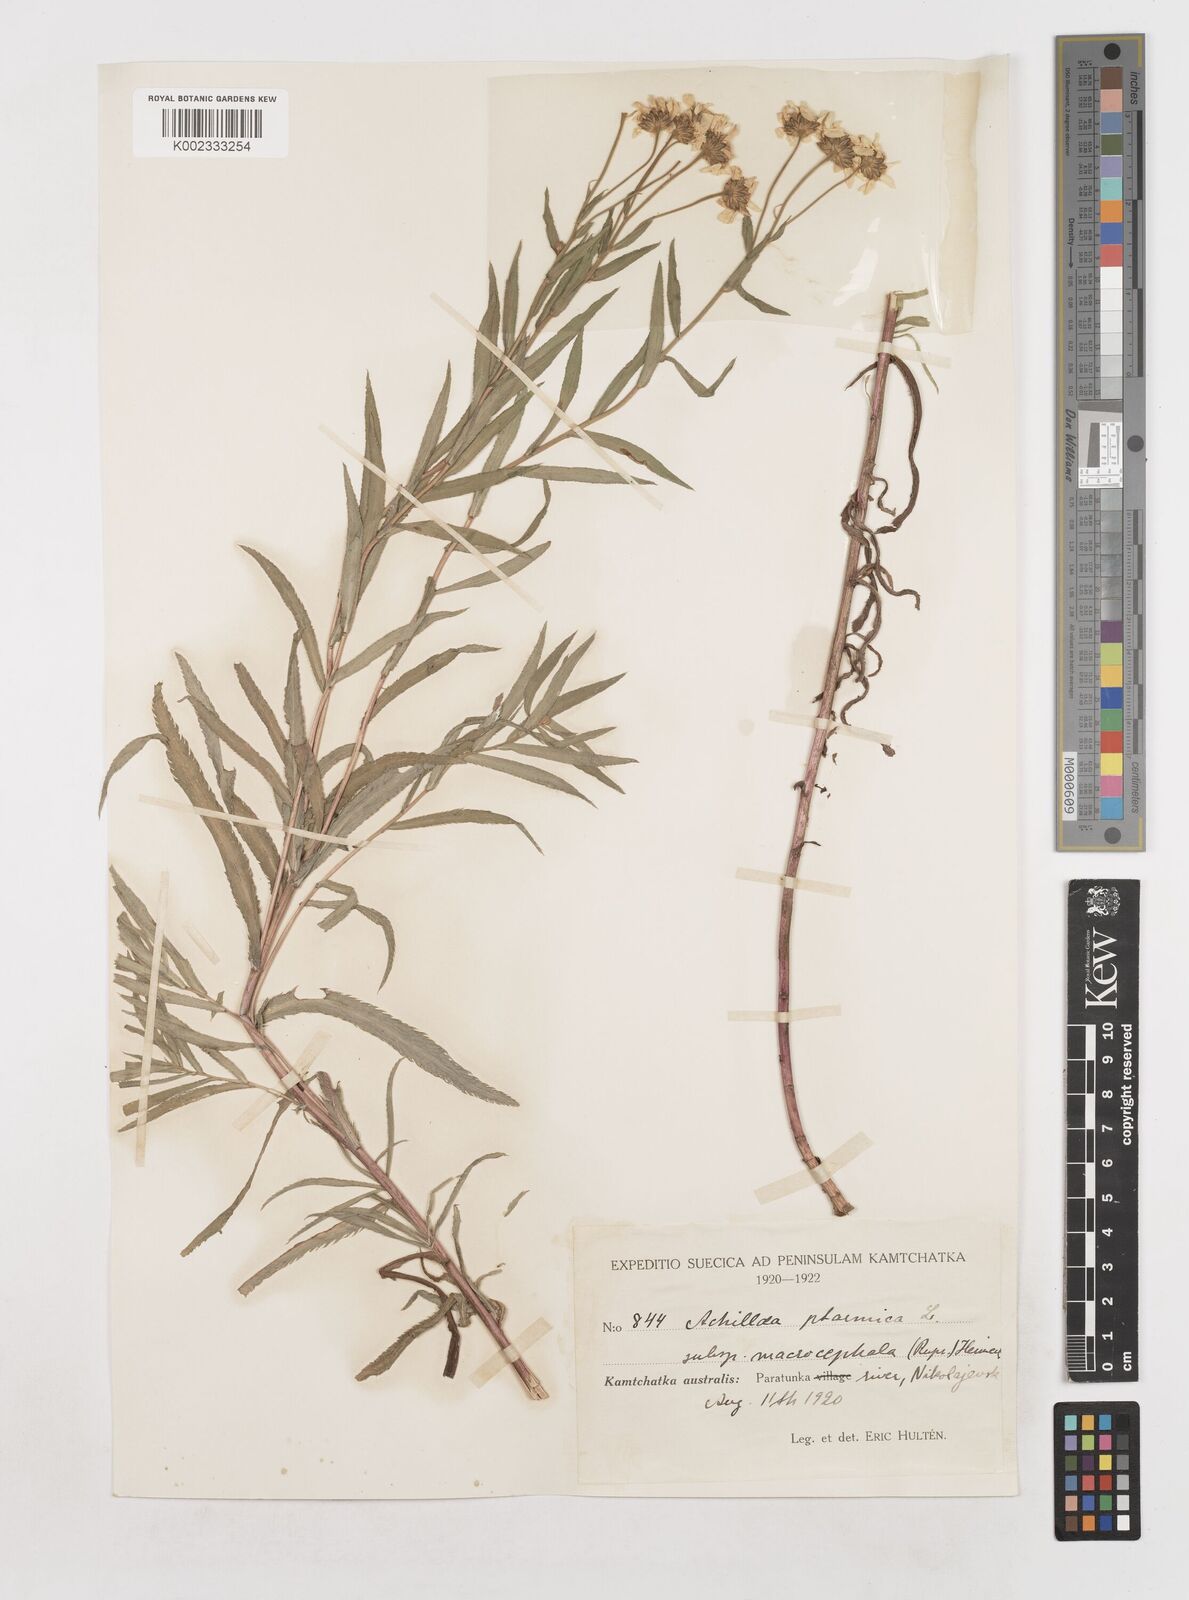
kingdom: Plantae
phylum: Tracheophyta
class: Magnoliopsida
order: Asterales
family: Asteraceae
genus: Achillea
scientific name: Achillea ptarmica
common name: Sneezeweed
